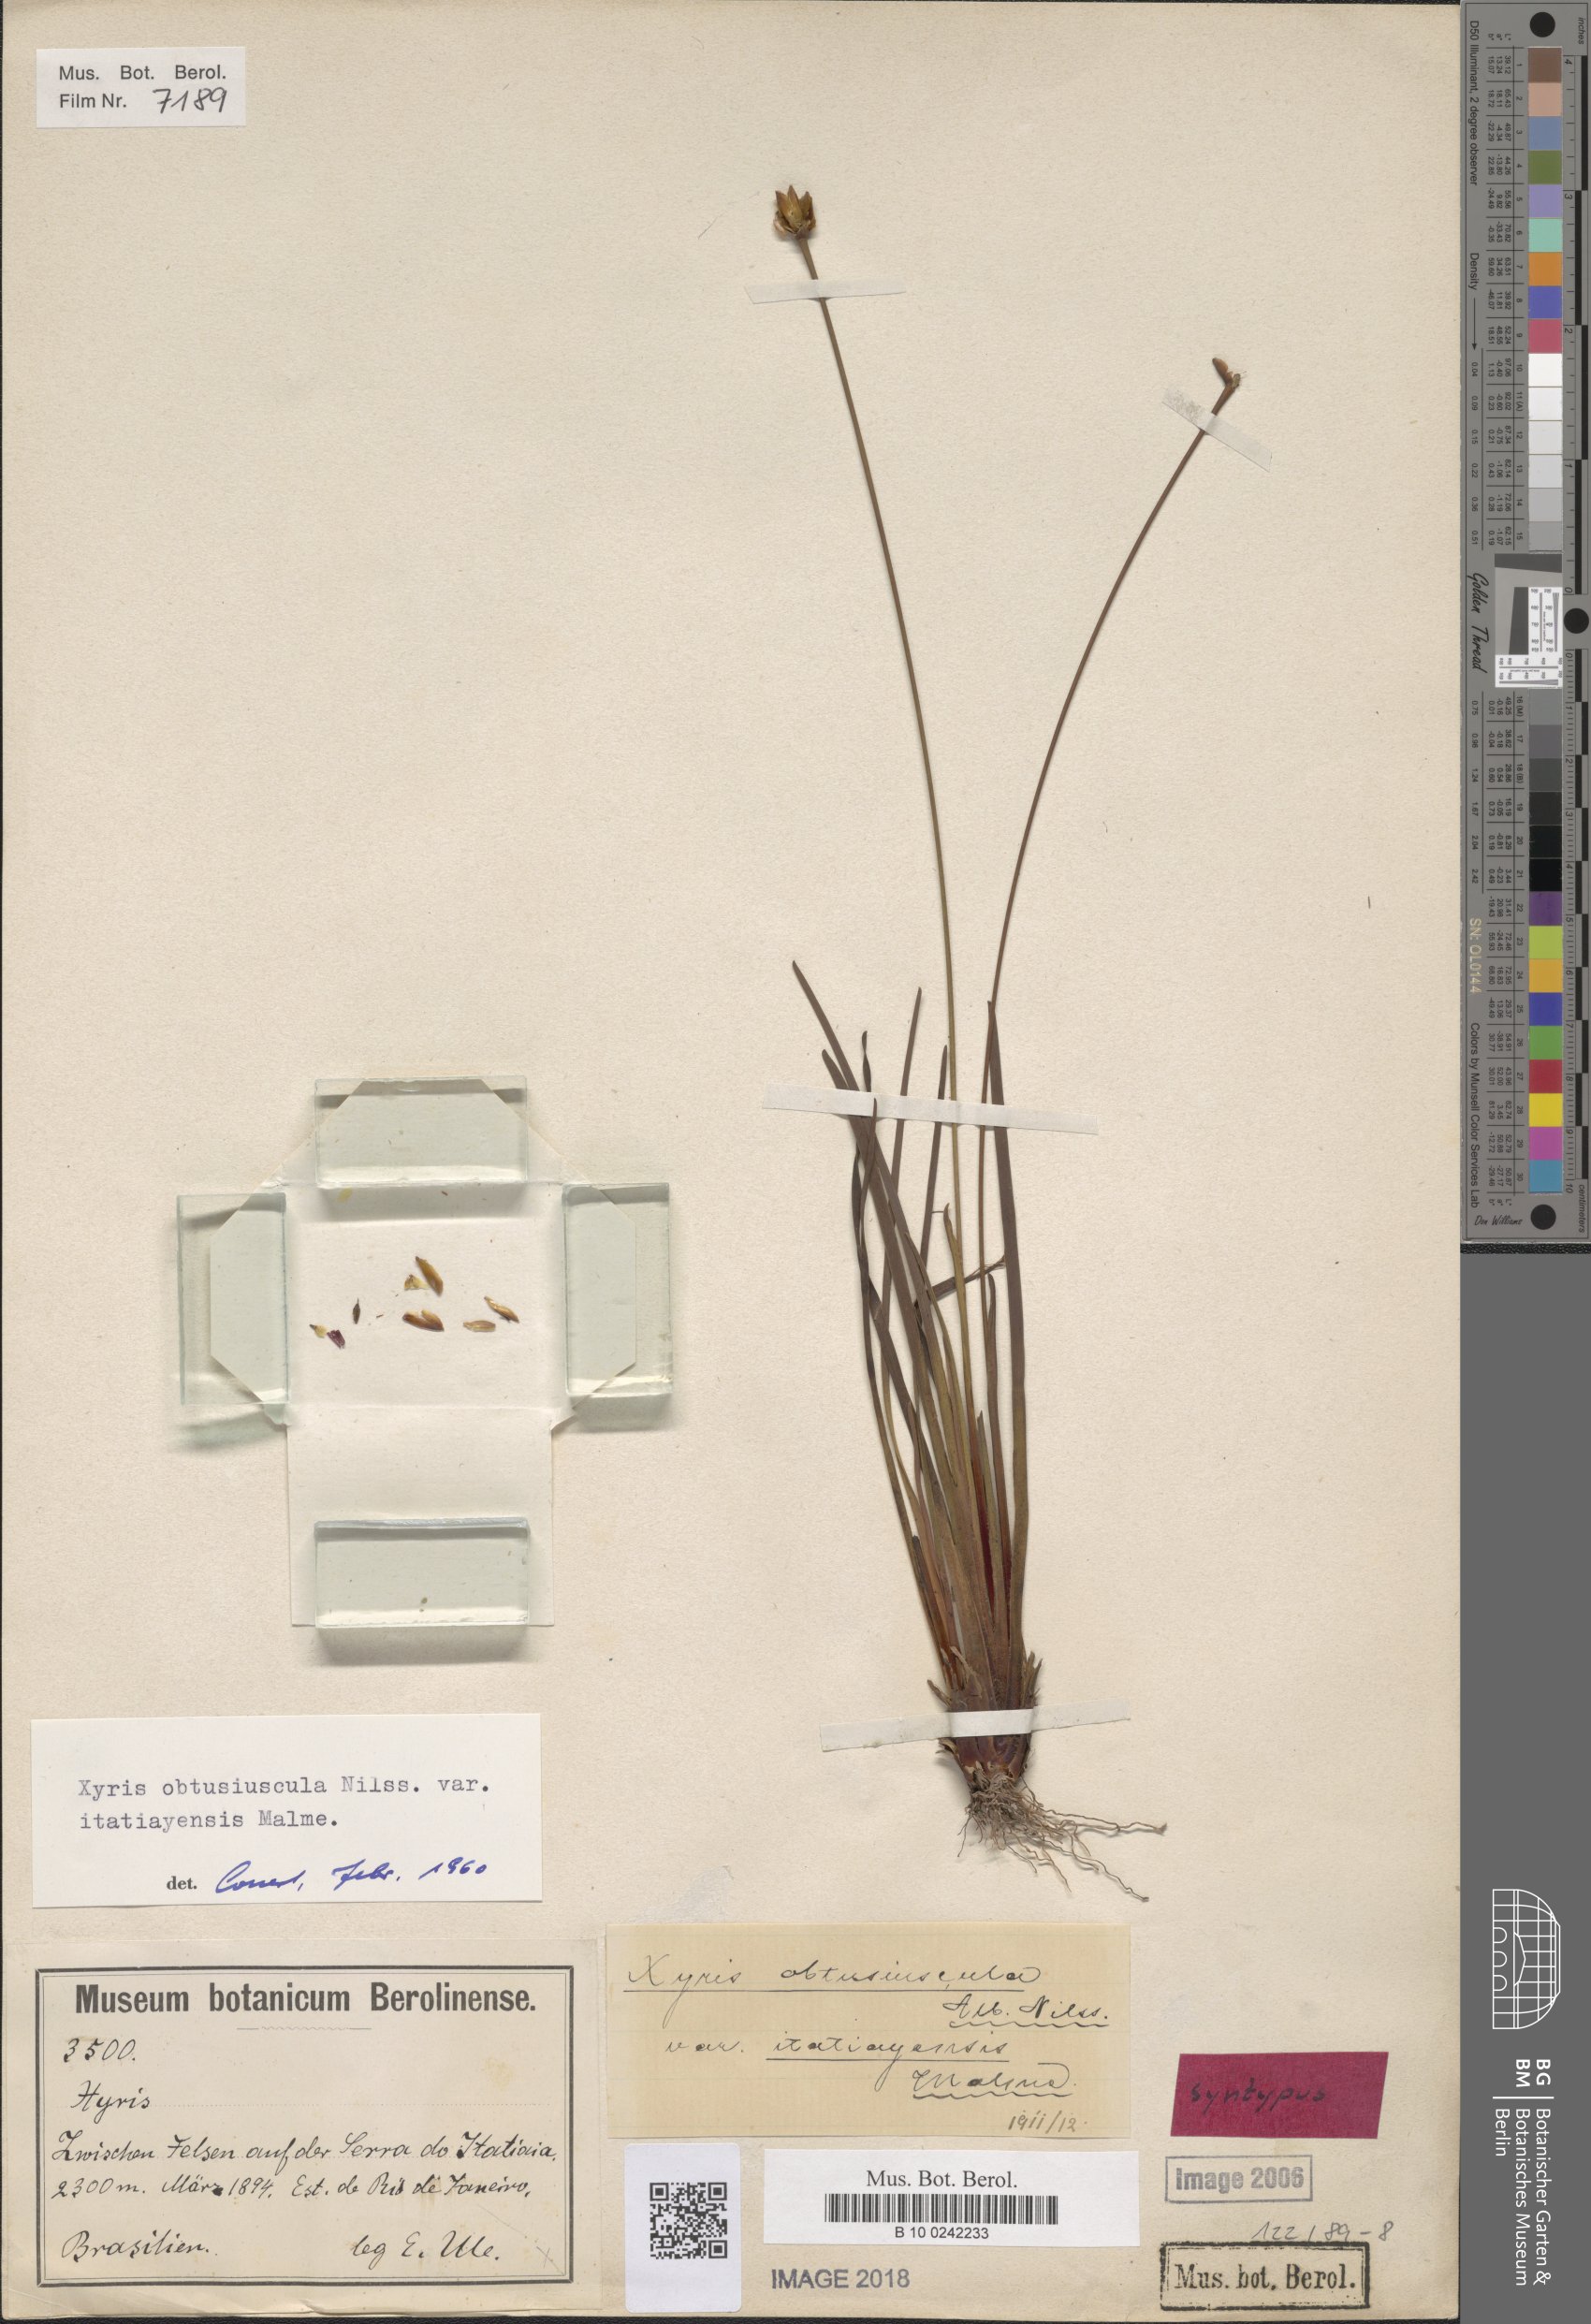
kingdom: Plantae
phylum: Tracheophyta
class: Liliopsida
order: Poales
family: Xyridaceae
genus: Xyris
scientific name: Xyris itatiayensis
